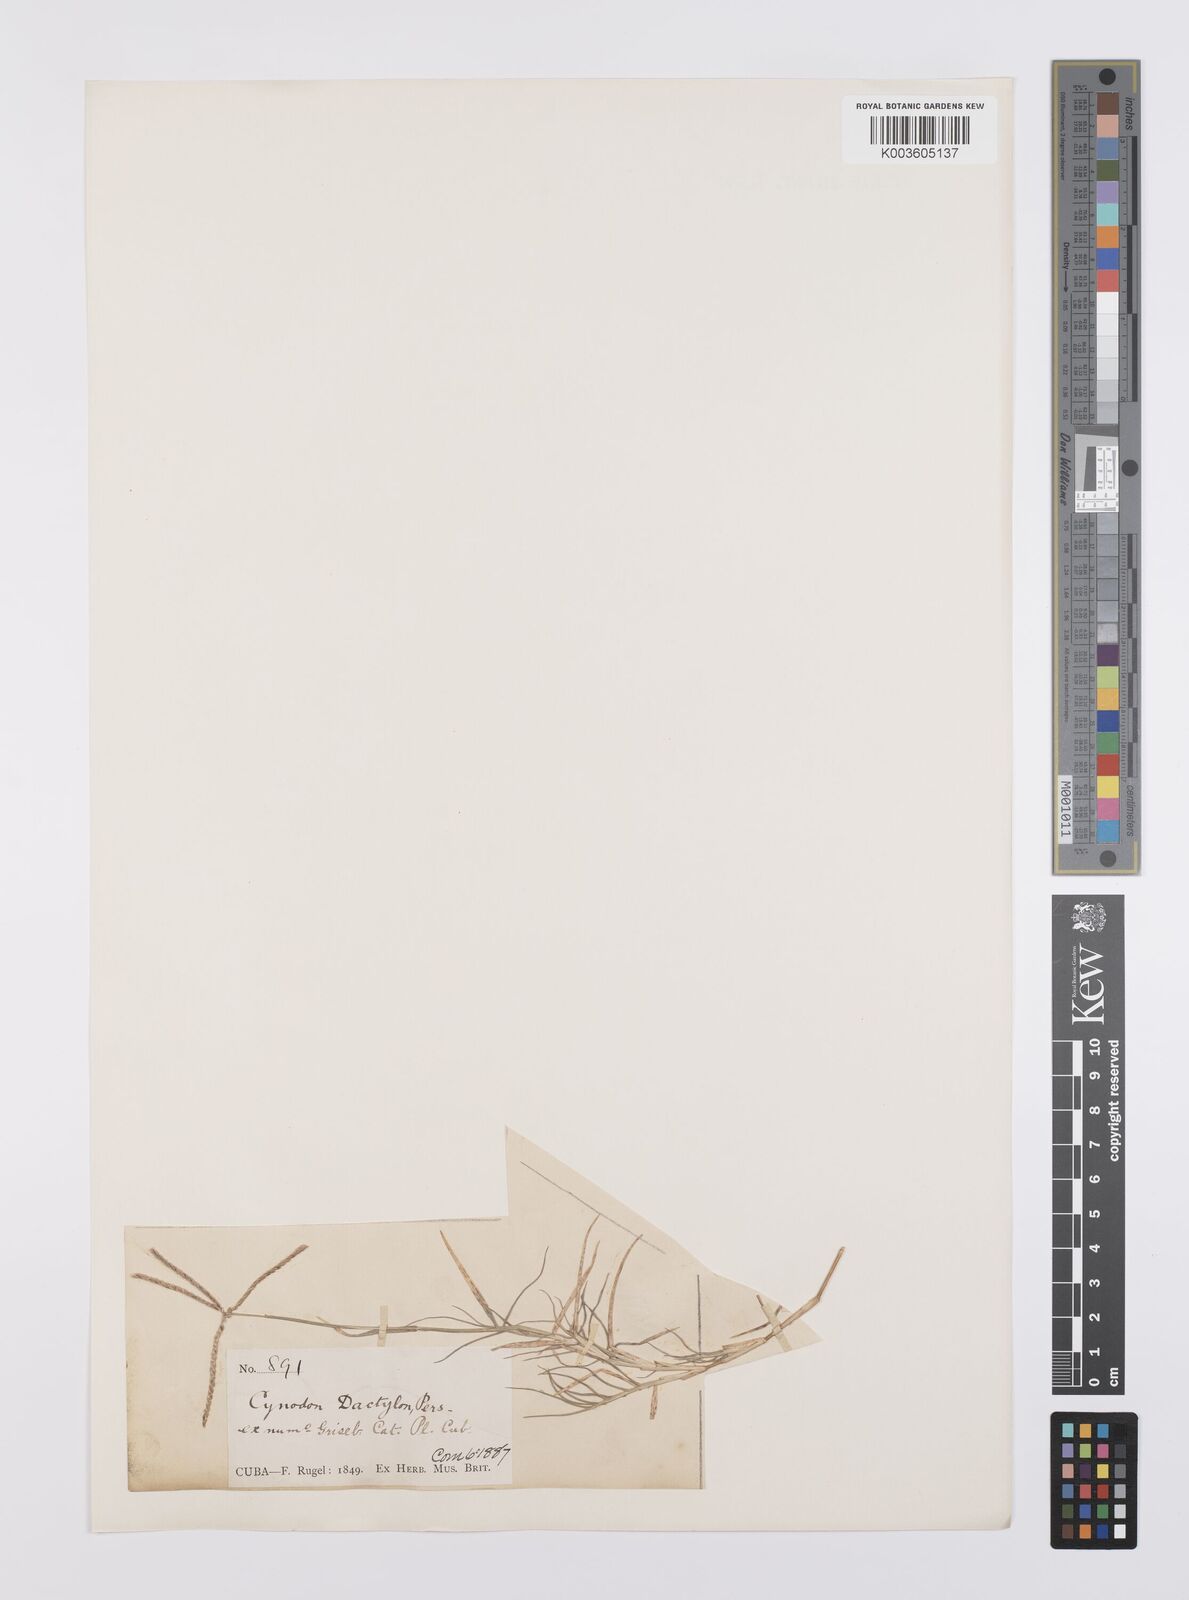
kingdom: Plantae
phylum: Tracheophyta
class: Liliopsida
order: Poales
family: Poaceae
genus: Cynodon
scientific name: Cynodon dactylon
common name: Bermuda grass
